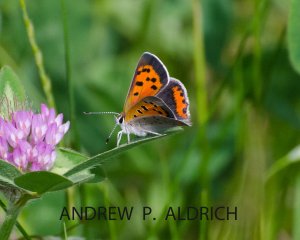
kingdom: Animalia
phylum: Arthropoda
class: Insecta
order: Lepidoptera
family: Lycaenidae
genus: Lycaena
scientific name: Lycaena phlaeas
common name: American Copper
